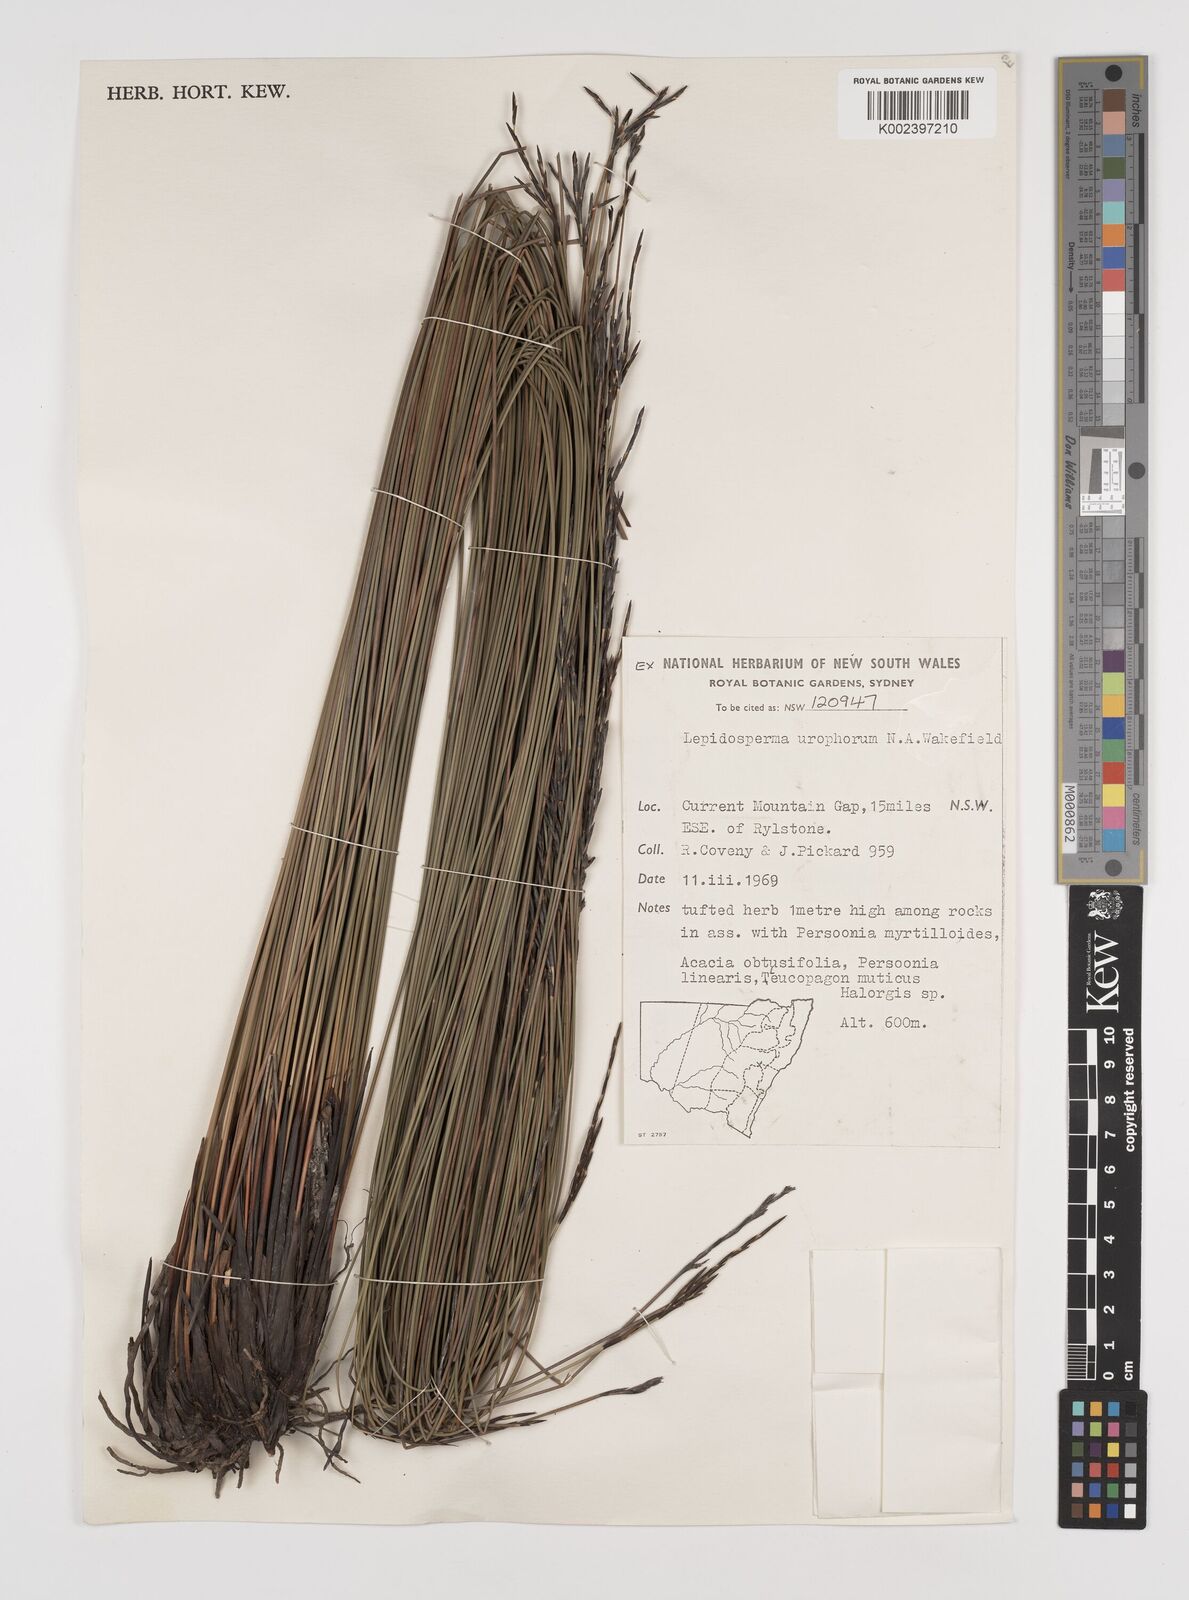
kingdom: Plantae
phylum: Tracheophyta
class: Liliopsida
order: Poales
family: Cyperaceae
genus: Lepidosperma
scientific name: Lepidosperma urophorum
